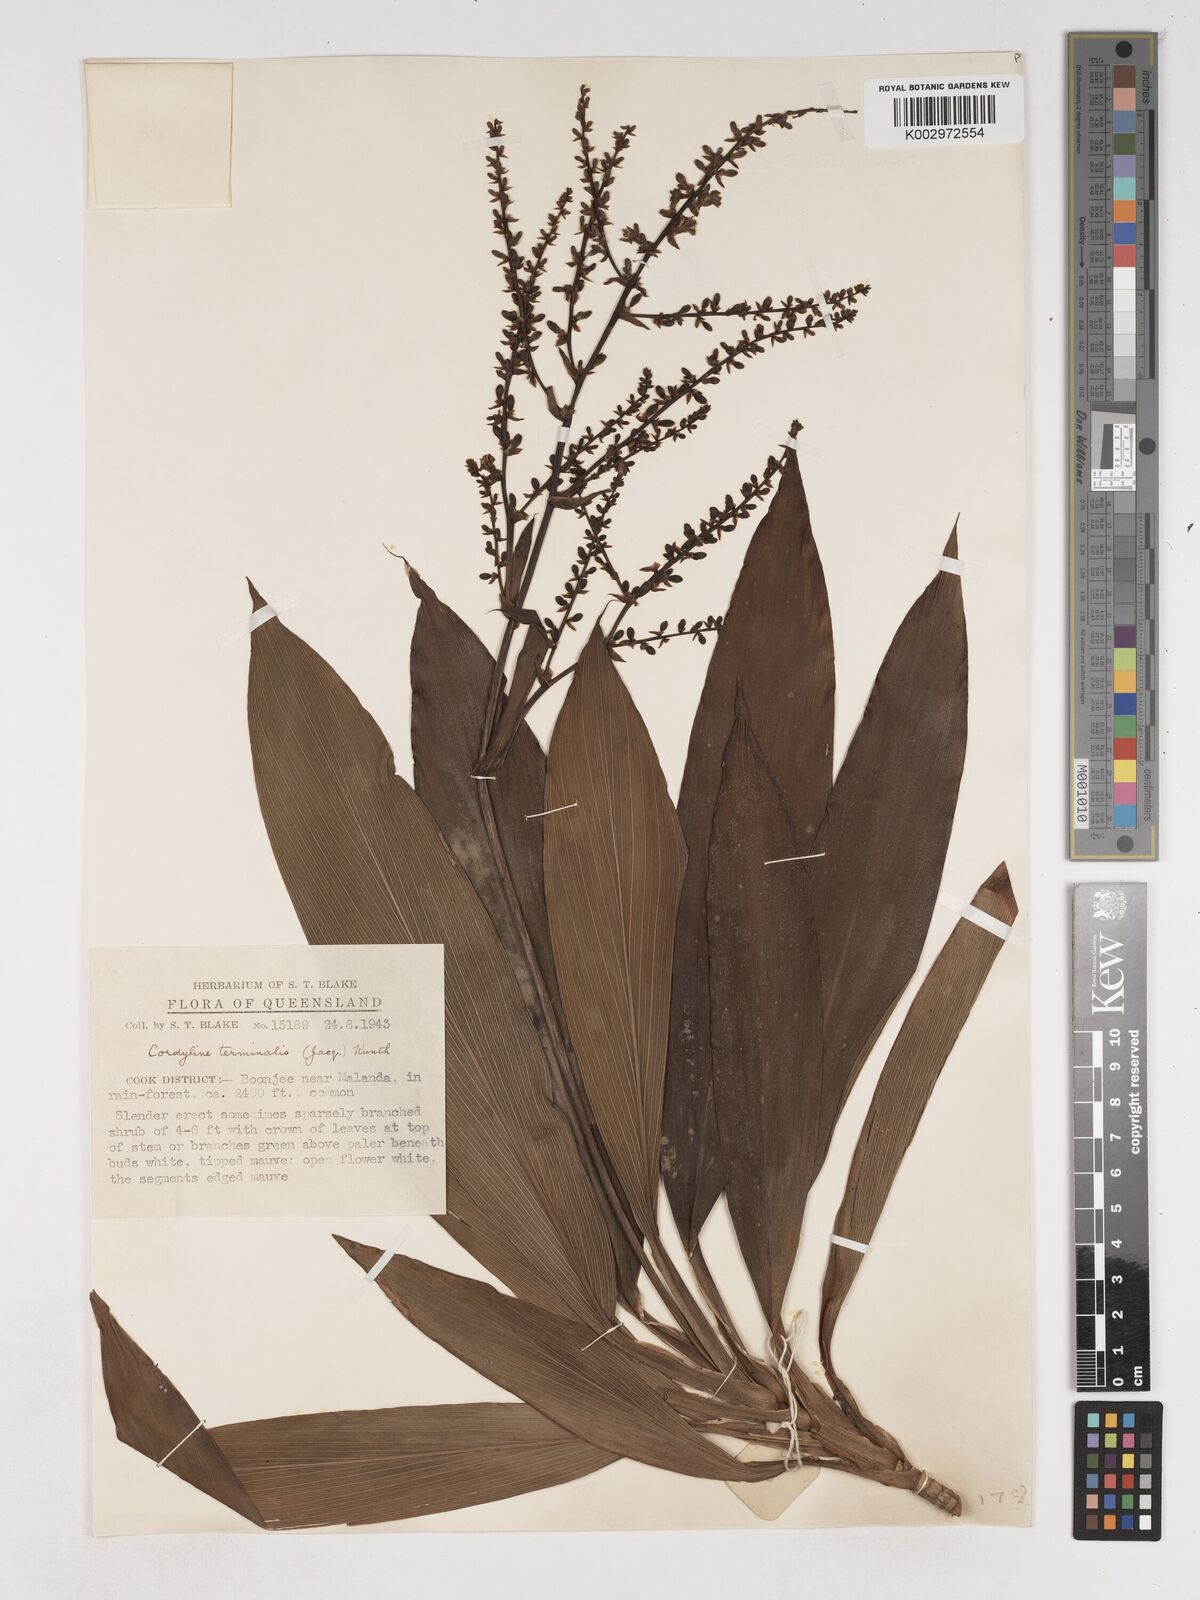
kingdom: Plantae
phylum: Tracheophyta
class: Liliopsida
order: Asparagales
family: Asparagaceae
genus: Cordyline
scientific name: Cordyline fruticosa
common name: Good-luck-plant
